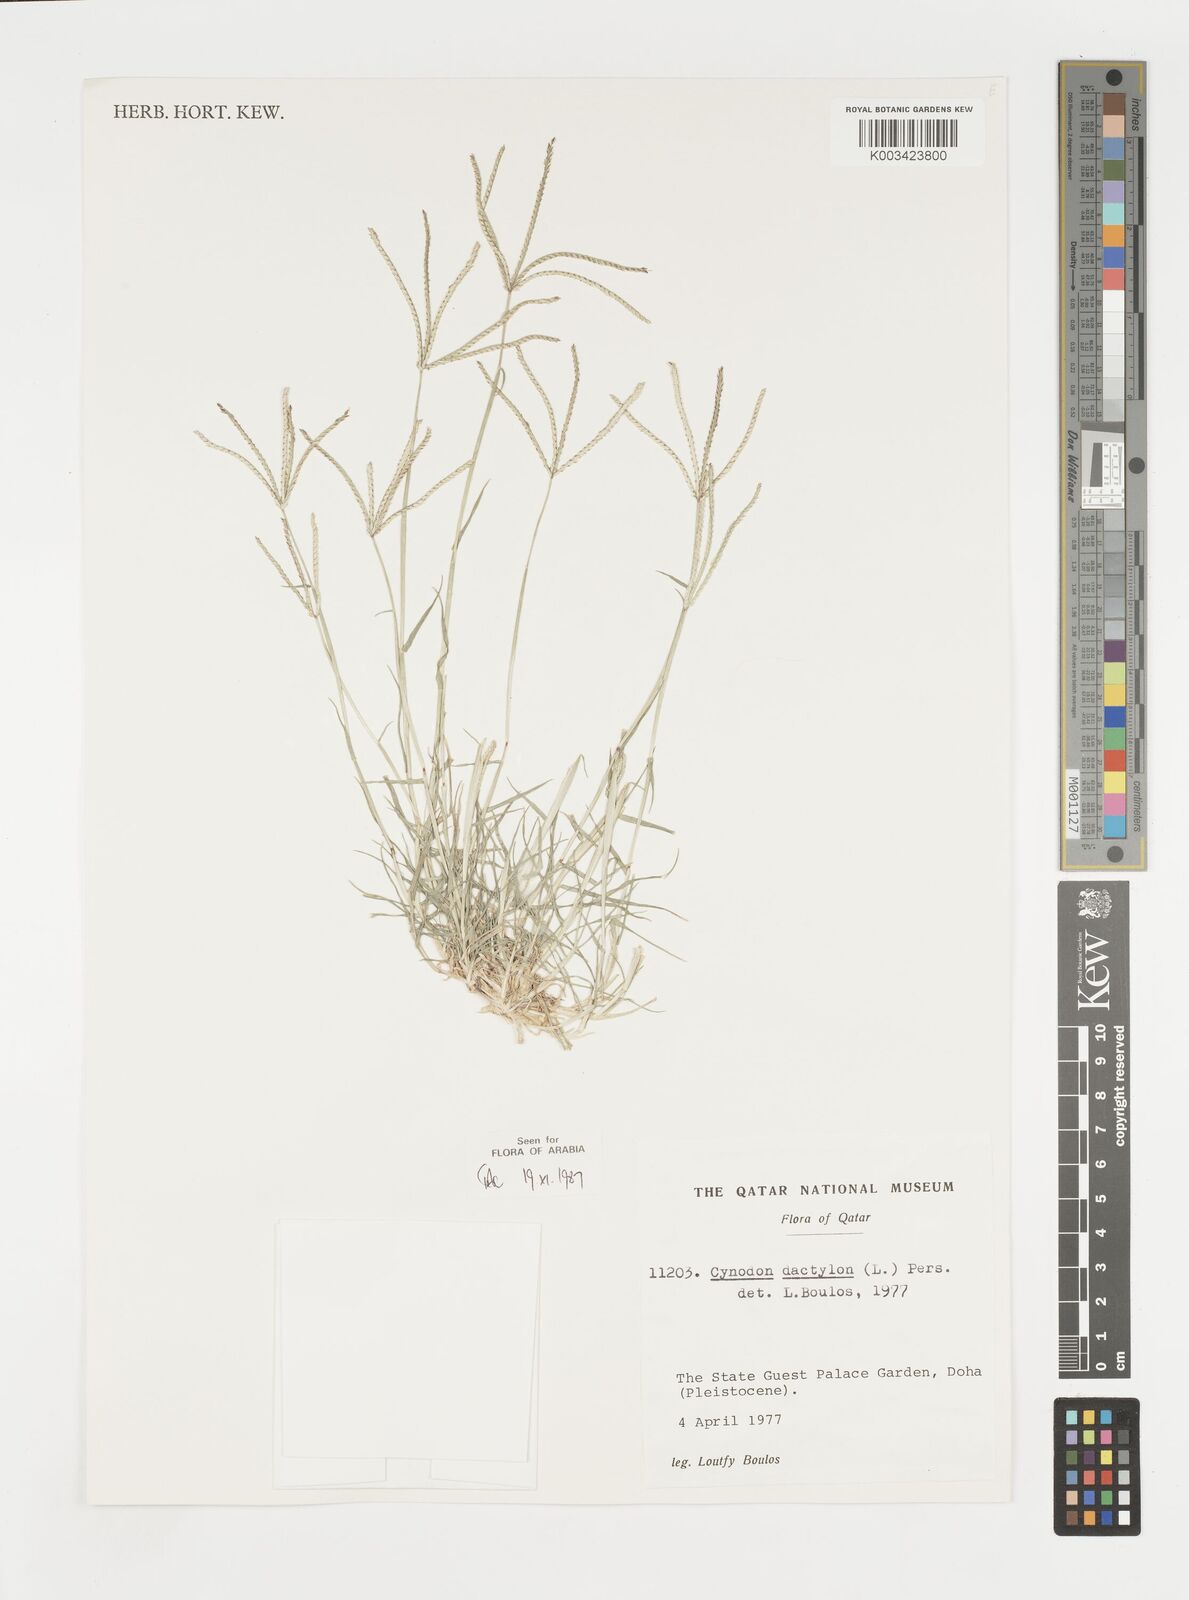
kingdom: Plantae
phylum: Tracheophyta
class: Liliopsida
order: Poales
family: Poaceae
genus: Cynodon
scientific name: Cynodon dactylon
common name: Bermuda grass
